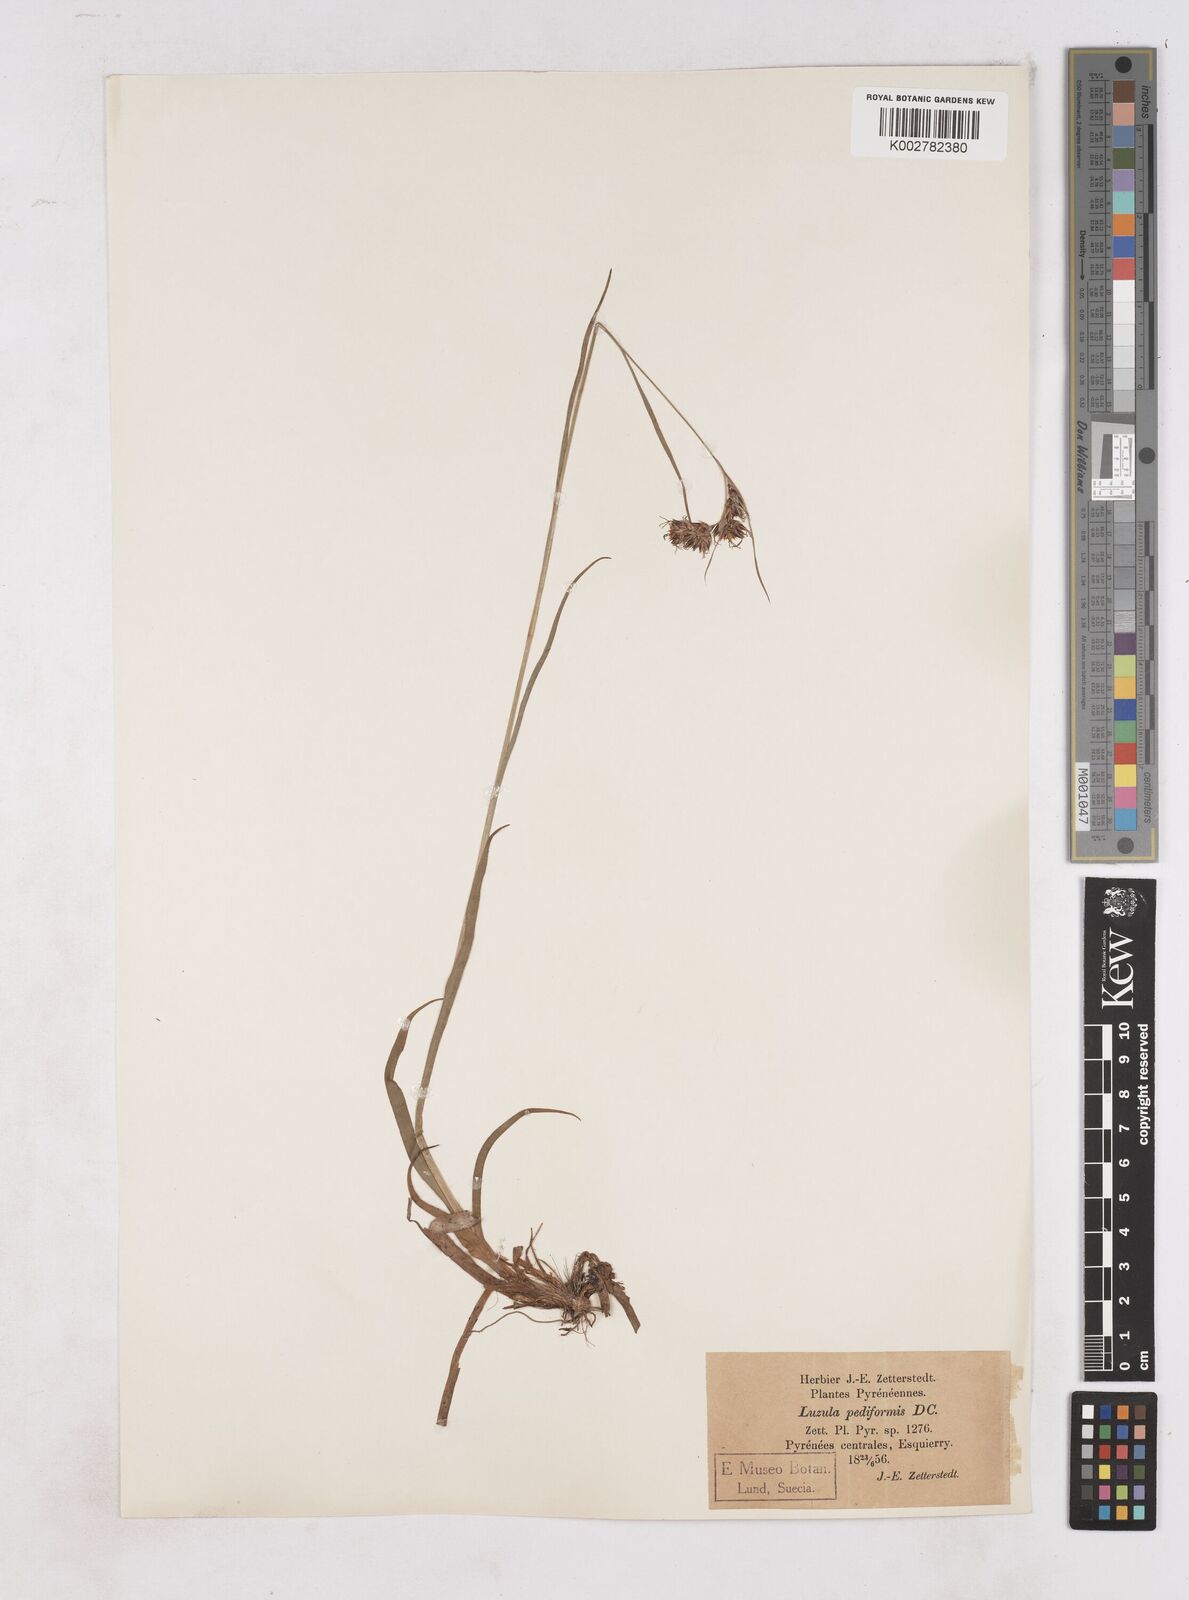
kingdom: Plantae
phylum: Tracheophyta
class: Liliopsida
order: Poales
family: Juncaceae
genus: Luzula
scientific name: Luzula pediformis
